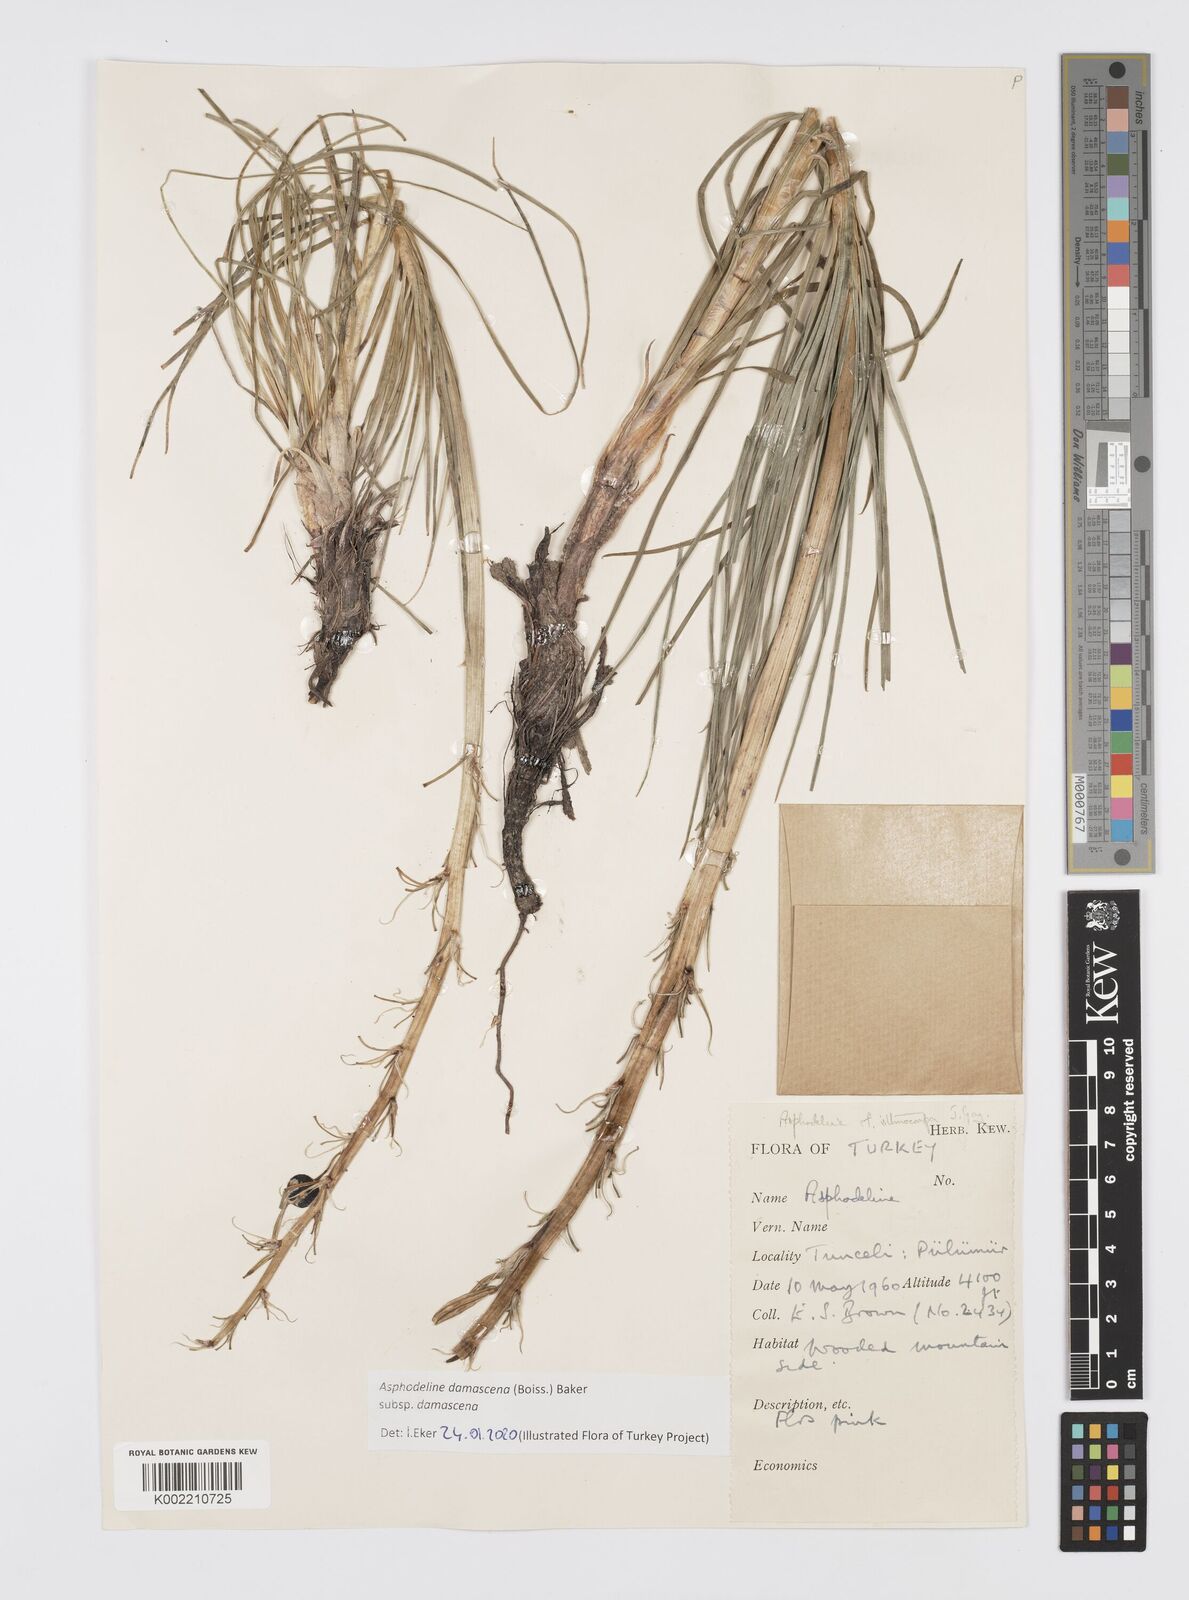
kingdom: Plantae
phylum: Tracheophyta
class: Liliopsida
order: Asparagales
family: Asphodelaceae
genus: Asphodeline
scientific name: Asphodeline damascena
